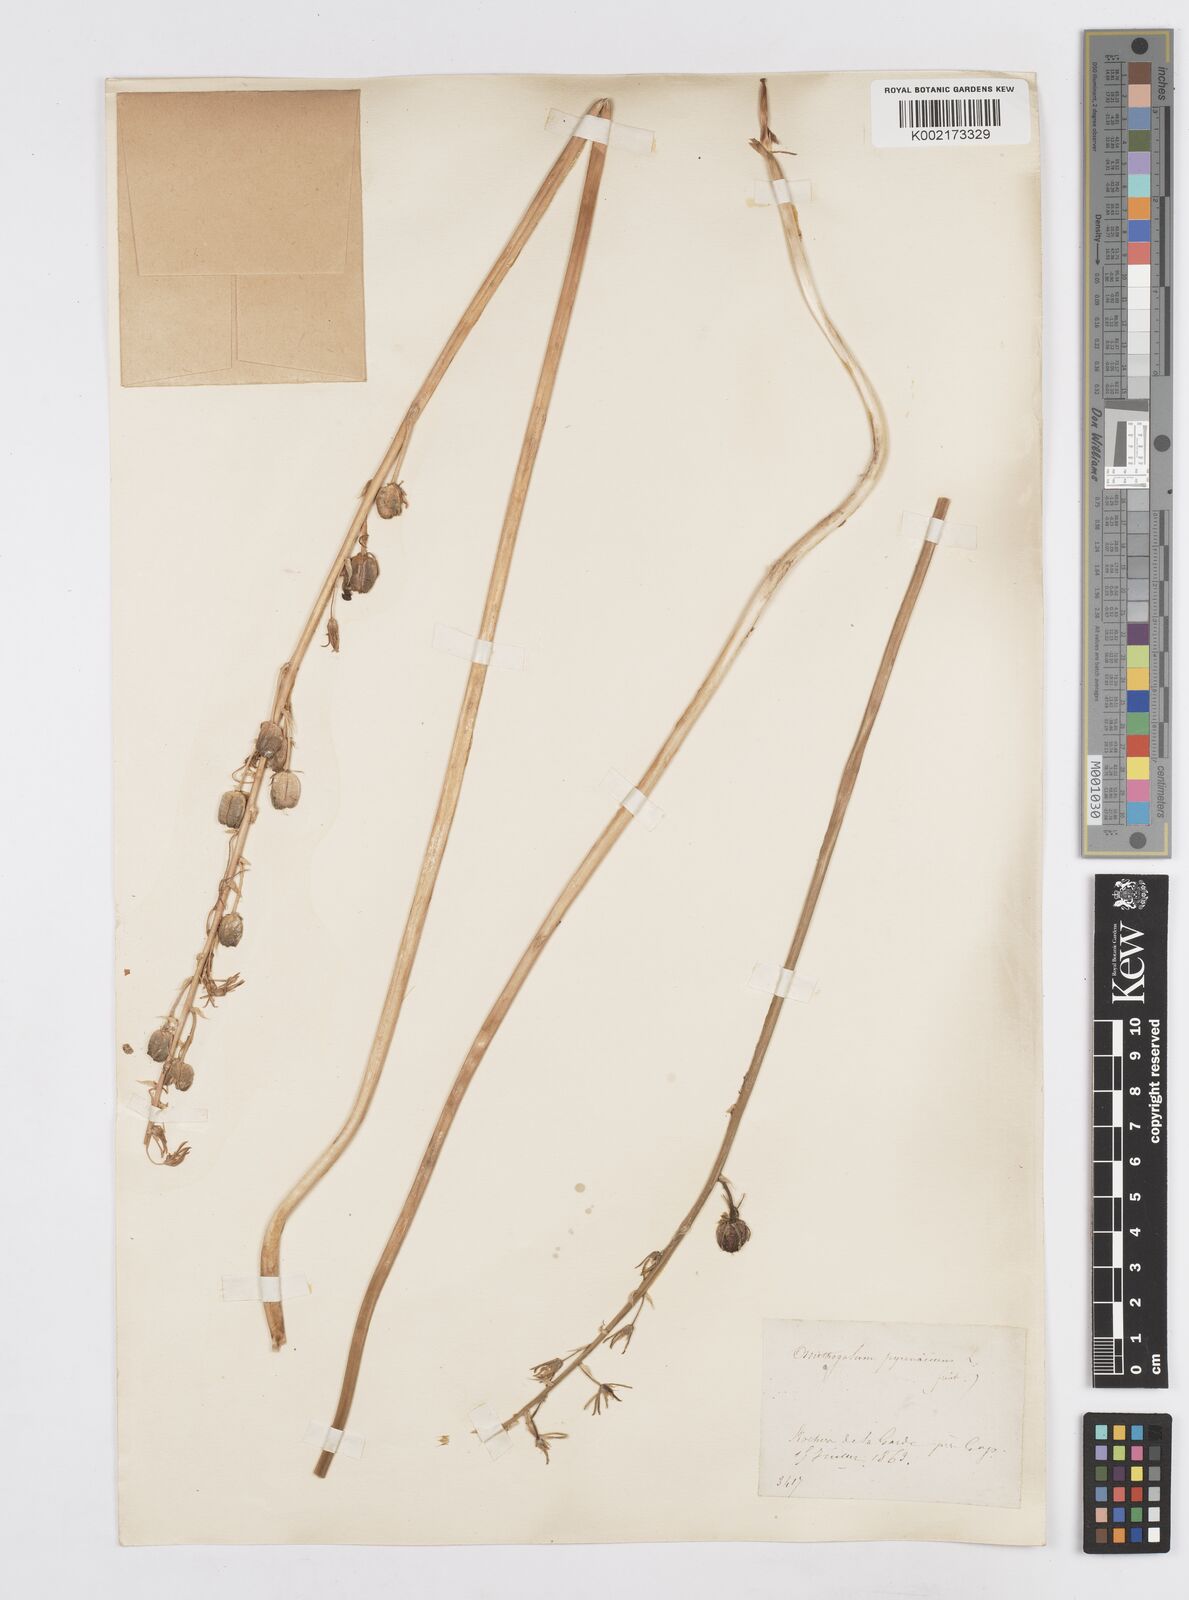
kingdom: Plantae
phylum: Tracheophyta
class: Liliopsida
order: Asparagales
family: Asparagaceae
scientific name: Asparagaceae
